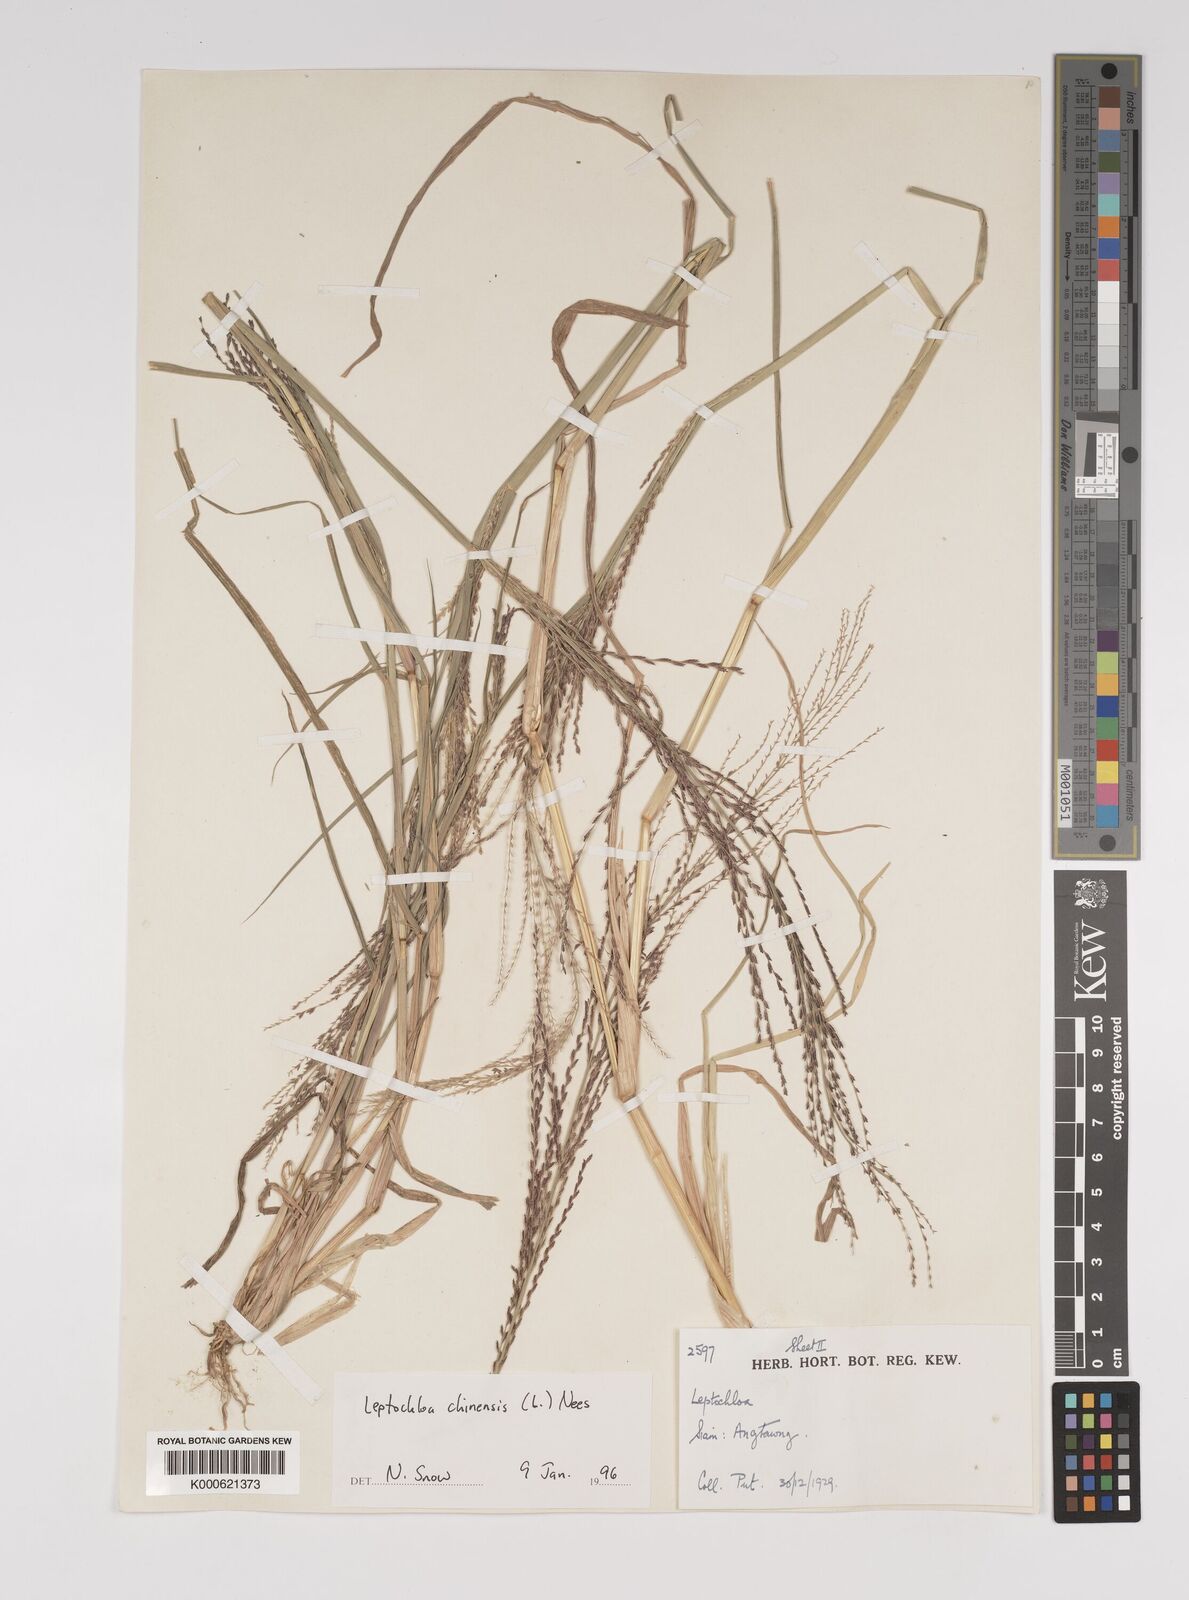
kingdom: Plantae
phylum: Tracheophyta
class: Liliopsida
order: Poales
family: Poaceae
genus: Leptochloa
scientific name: Leptochloa chinensis
